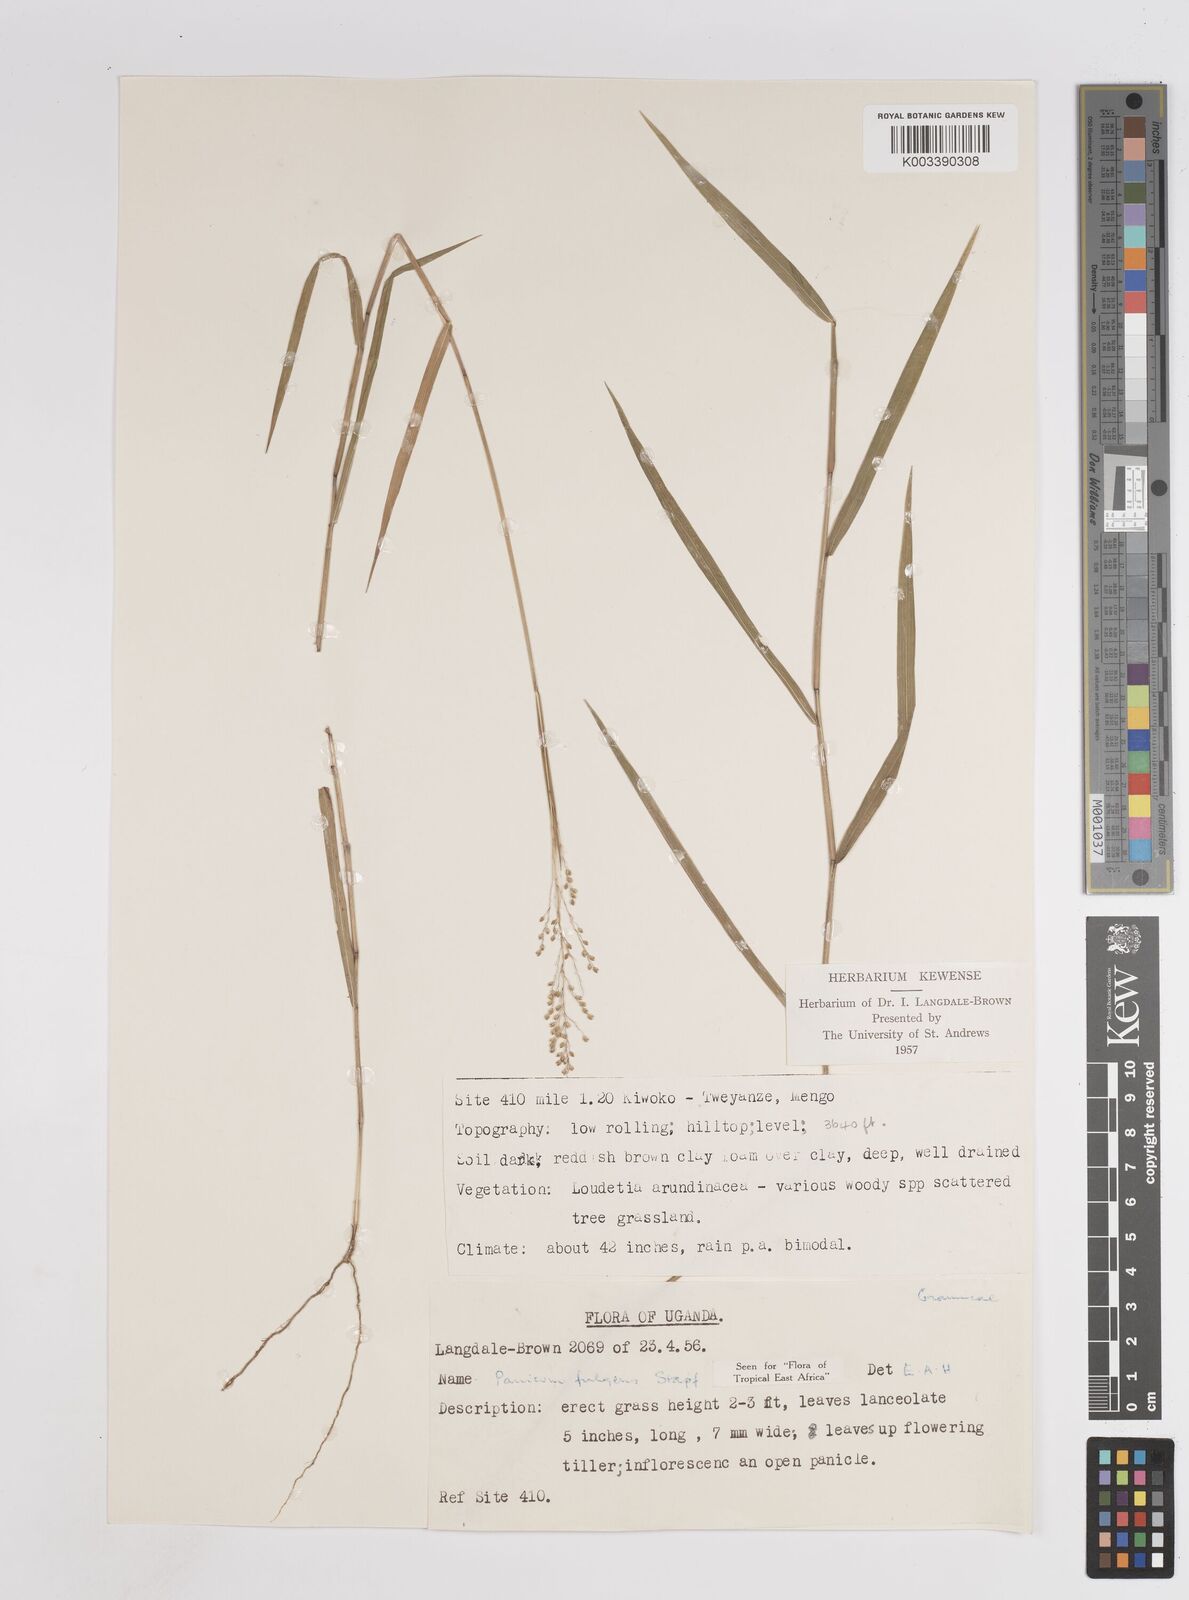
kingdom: Plantae
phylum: Tracheophyta
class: Liliopsida
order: Poales
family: Poaceae
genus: Trichanthecium
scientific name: Trichanthecium nervatum
